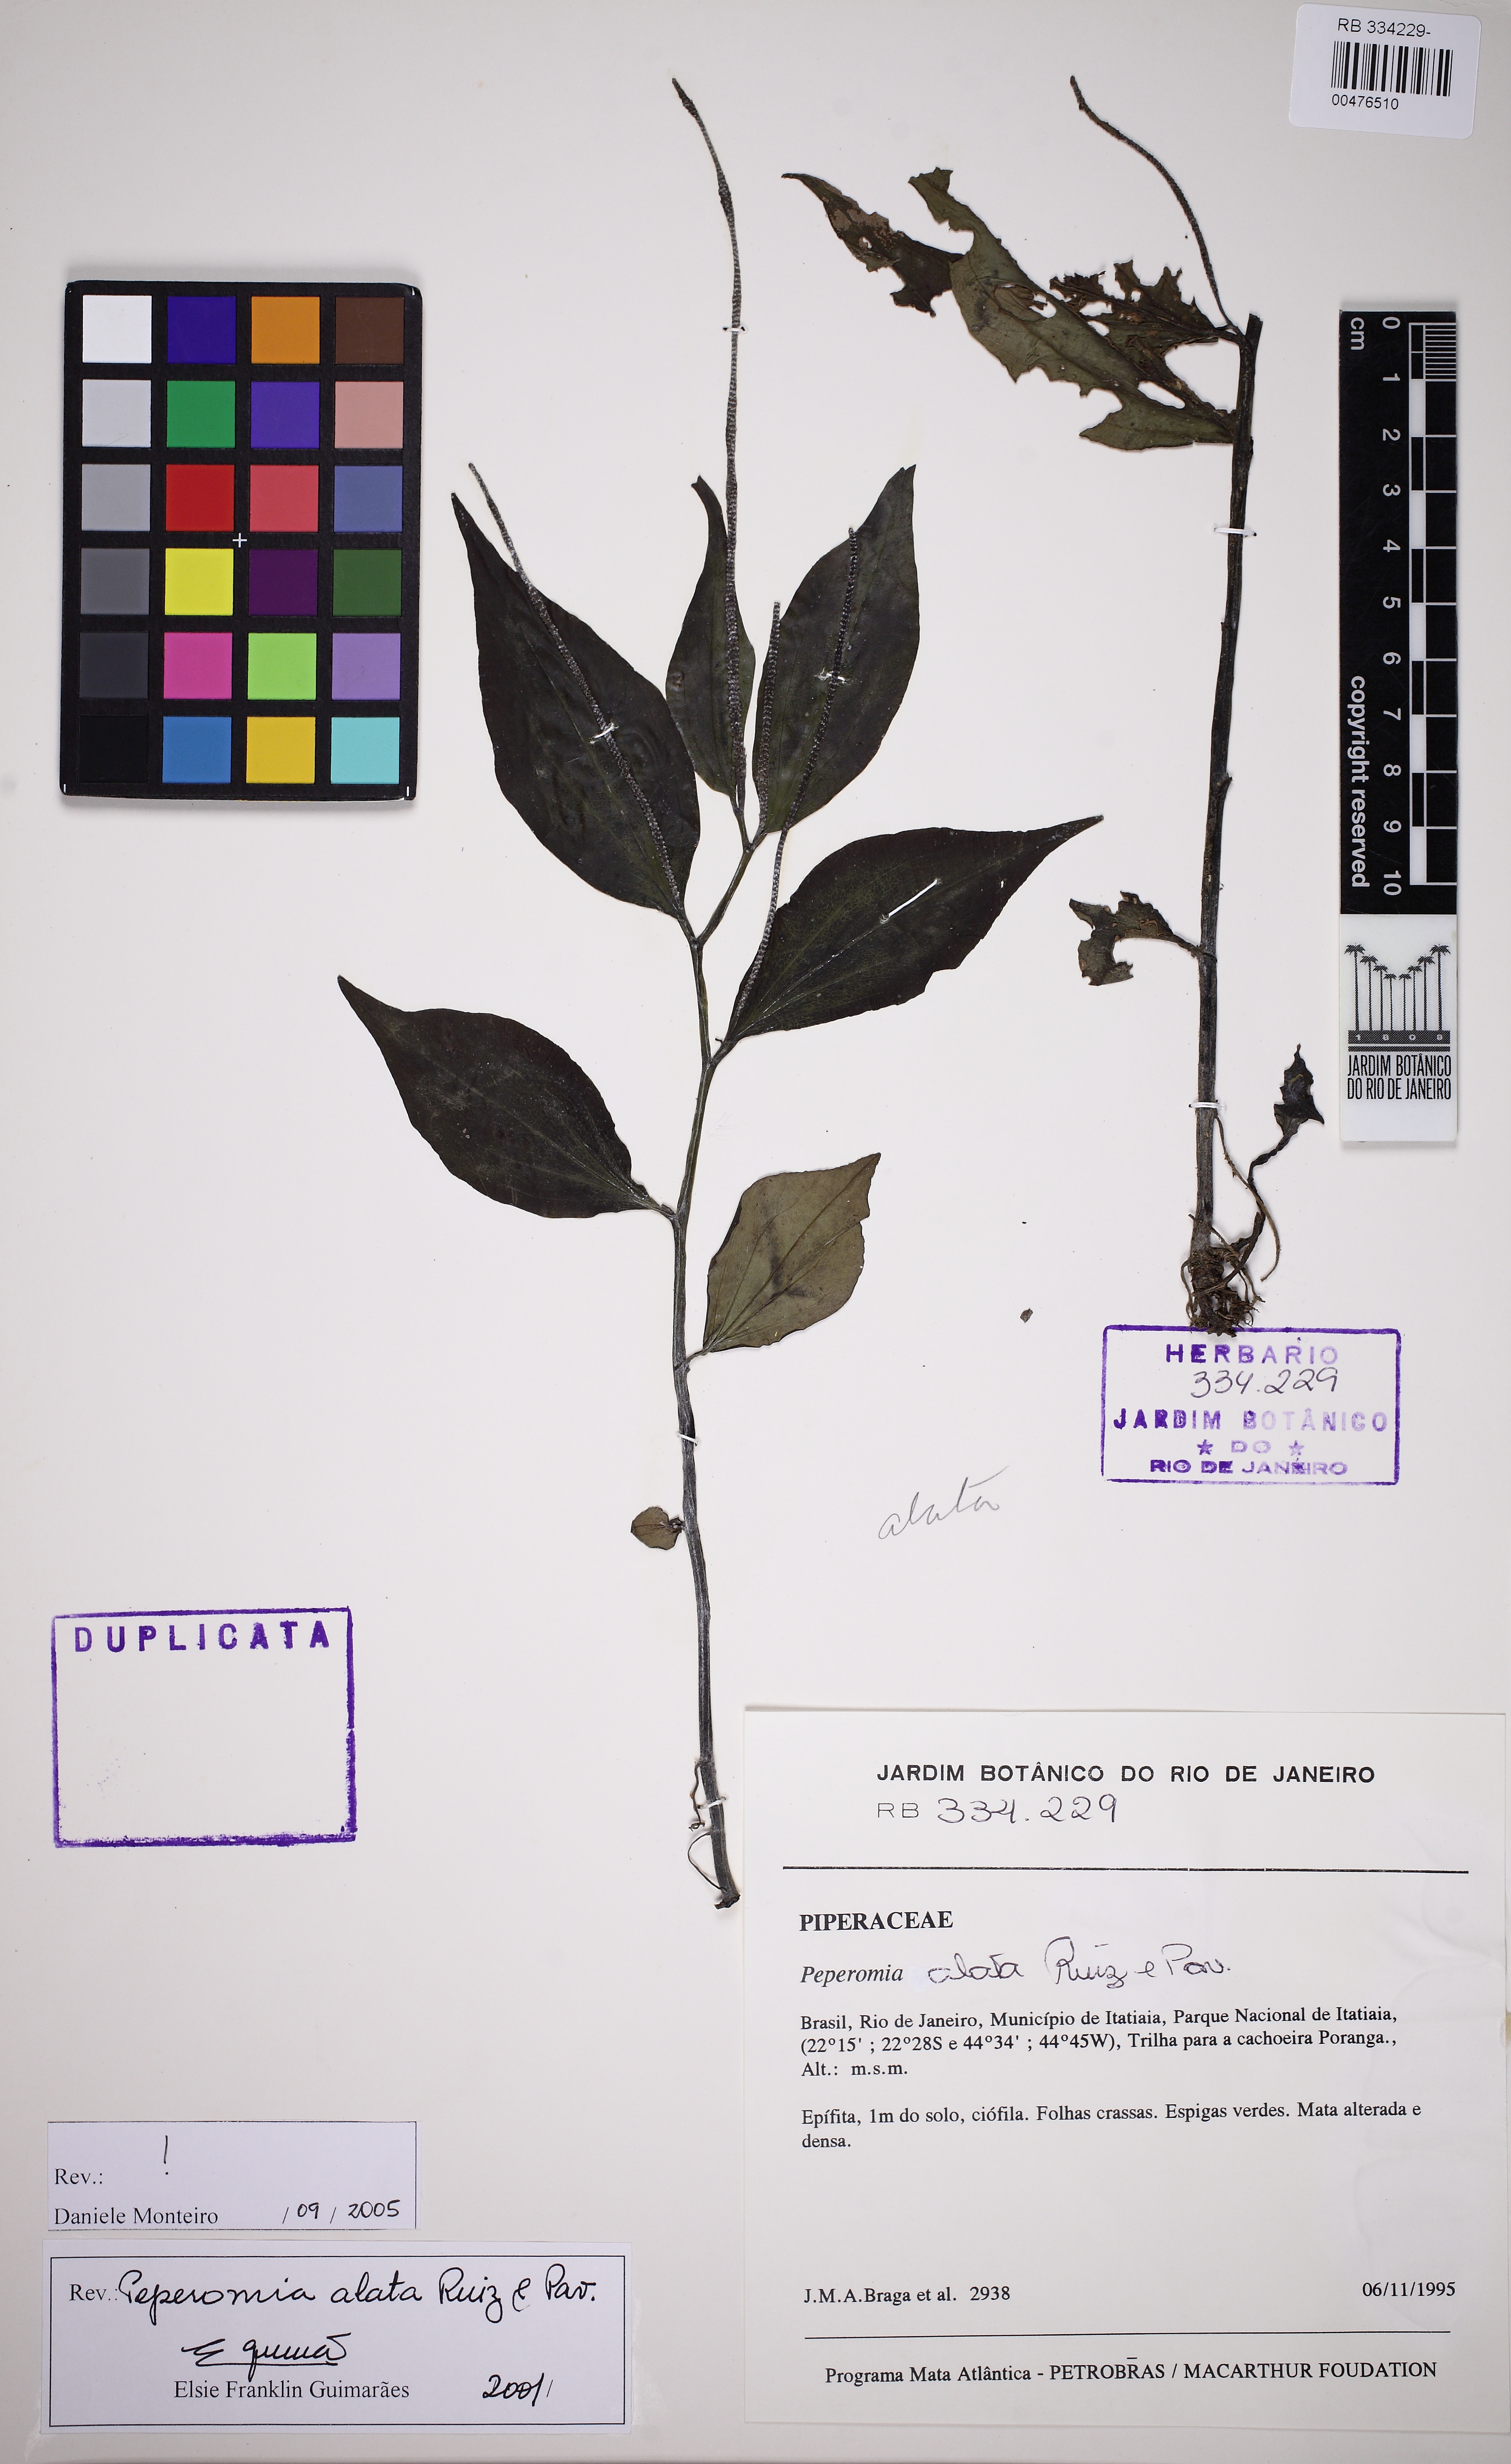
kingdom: Plantae
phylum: Tracheophyta
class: Magnoliopsida
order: Piperales
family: Piperaceae
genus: Peperomia
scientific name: Peperomia alata
